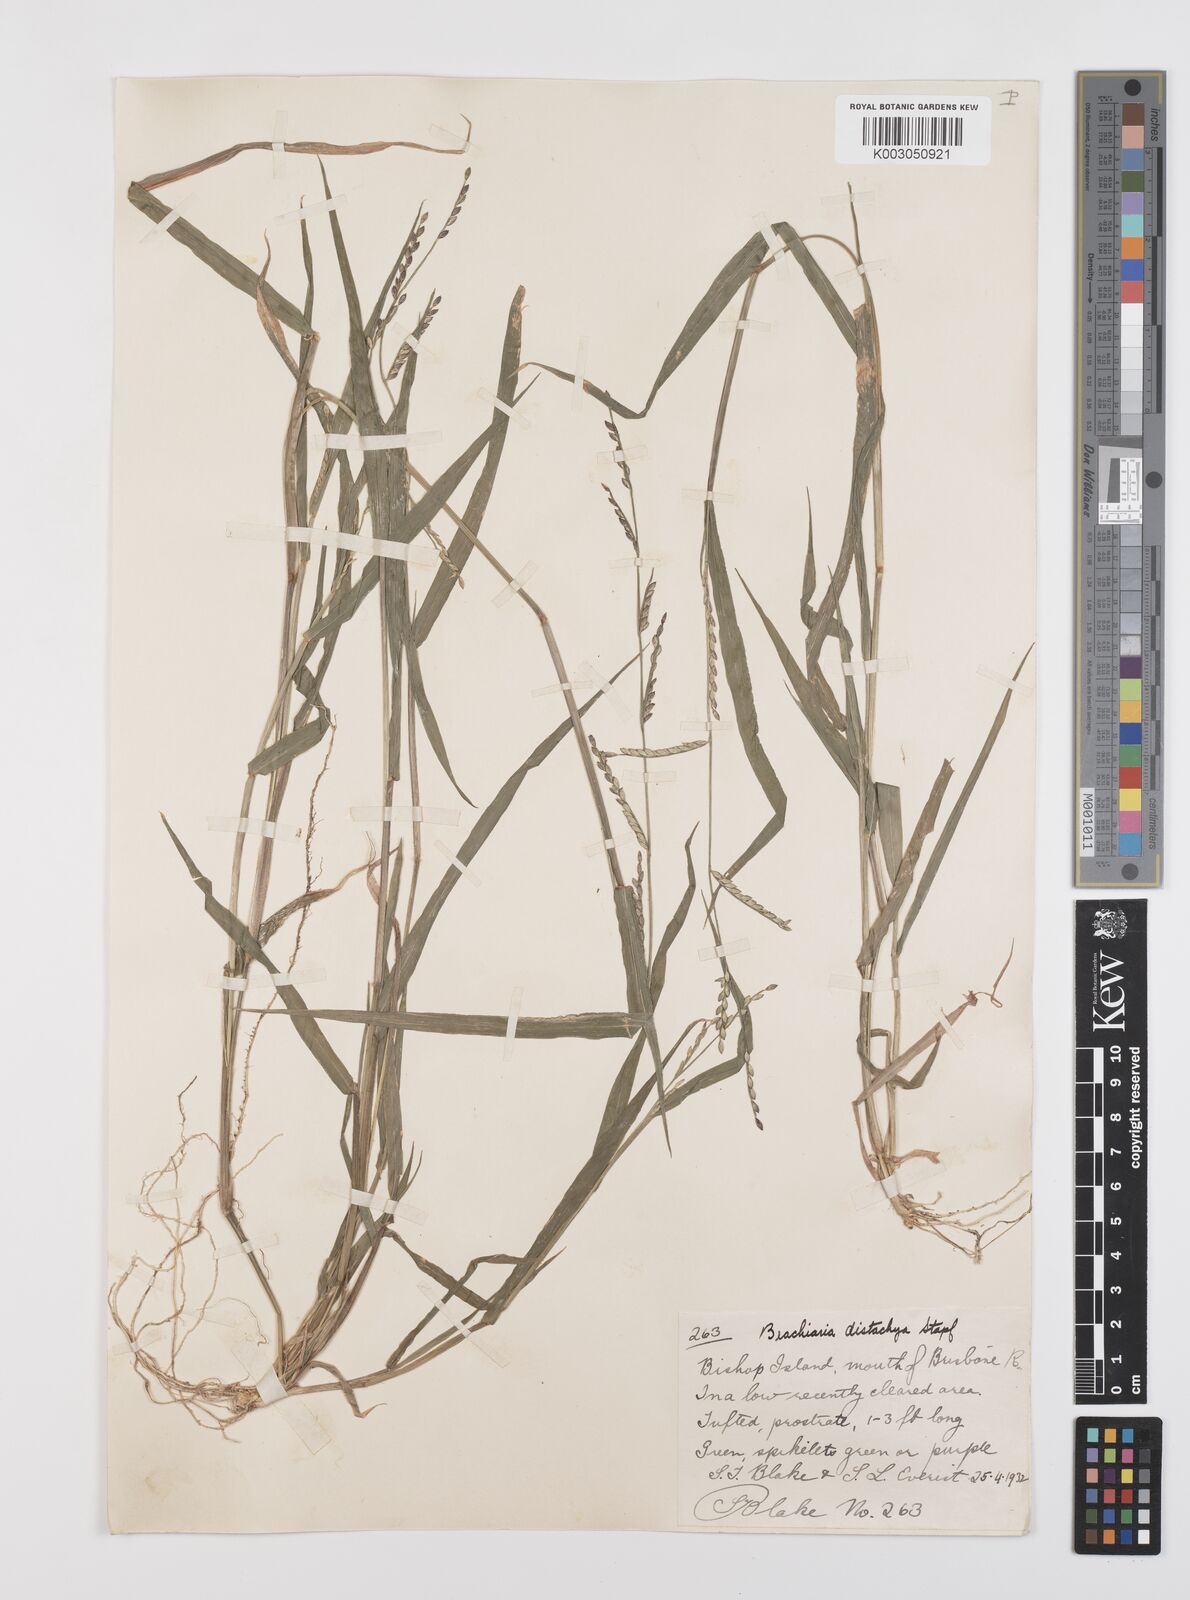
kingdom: Plantae
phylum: Tracheophyta
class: Liliopsida
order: Poales
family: Poaceae
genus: Urochloa
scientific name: Urochloa subquadripara
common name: Armgrass millet
